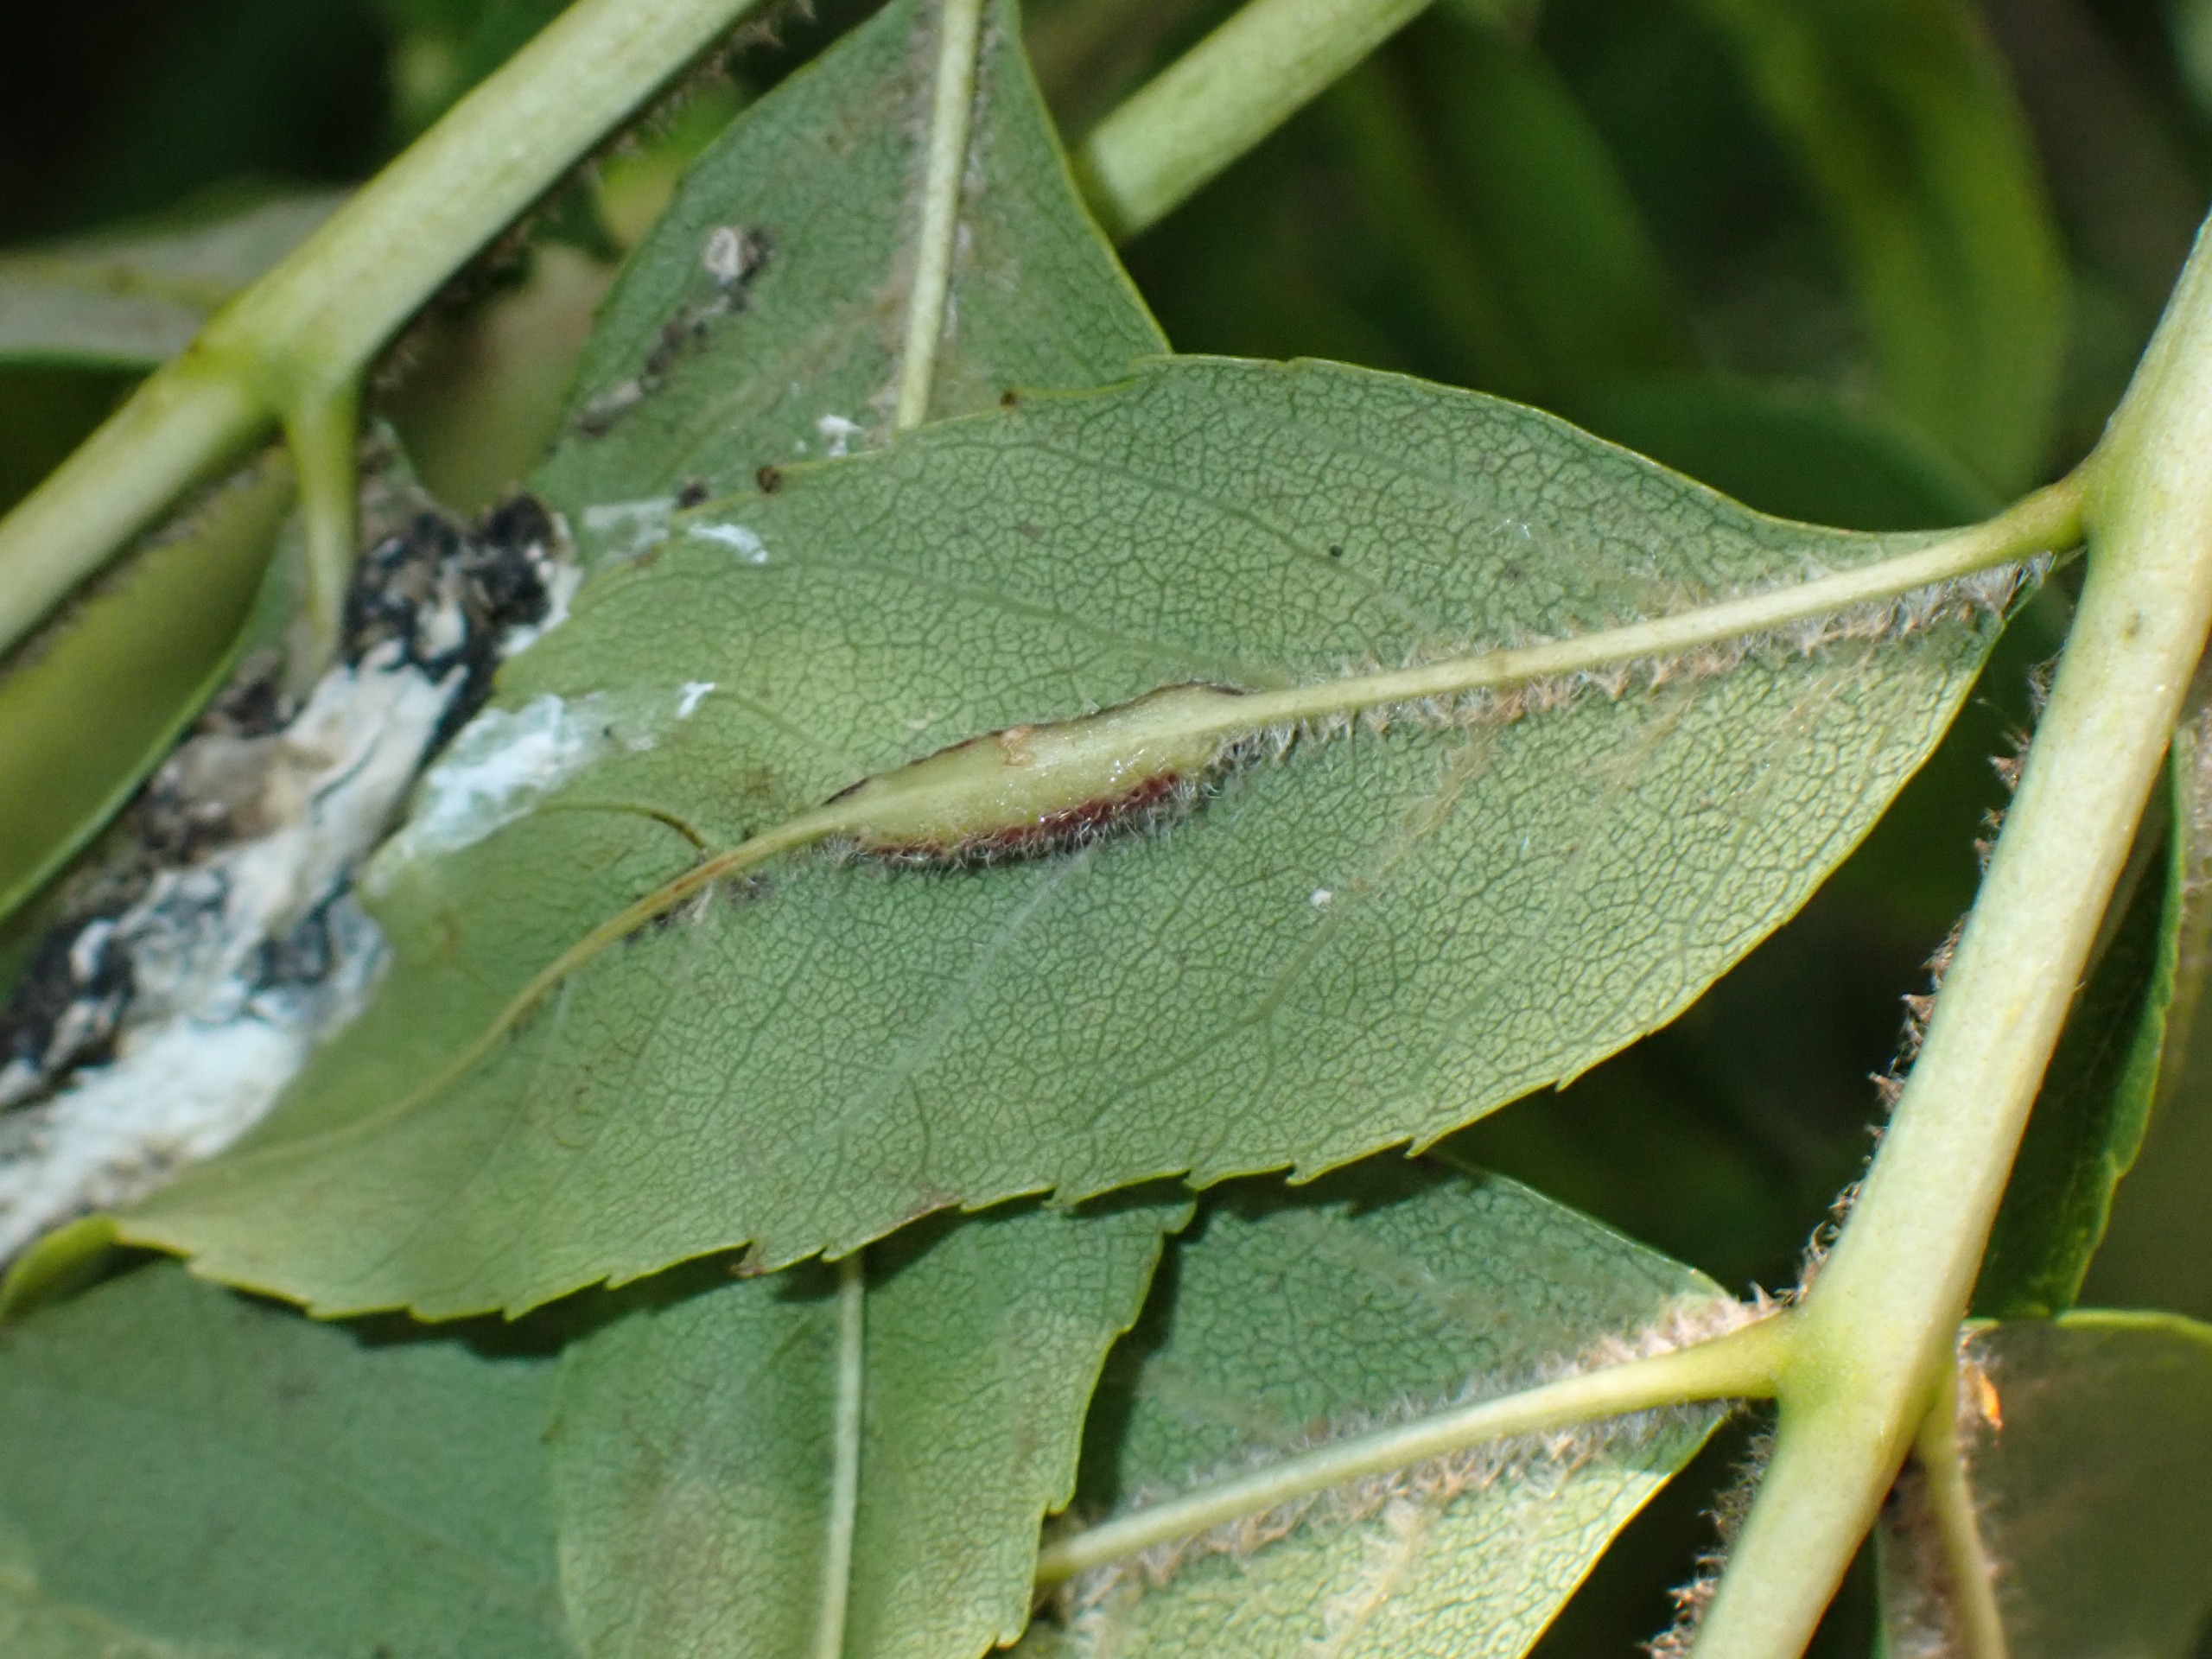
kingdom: Animalia
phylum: Arthropoda
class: Insecta
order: Diptera
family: Cecidomyiidae
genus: Dasineura
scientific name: Dasineura fraxini
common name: Orange askebladgalmyg
